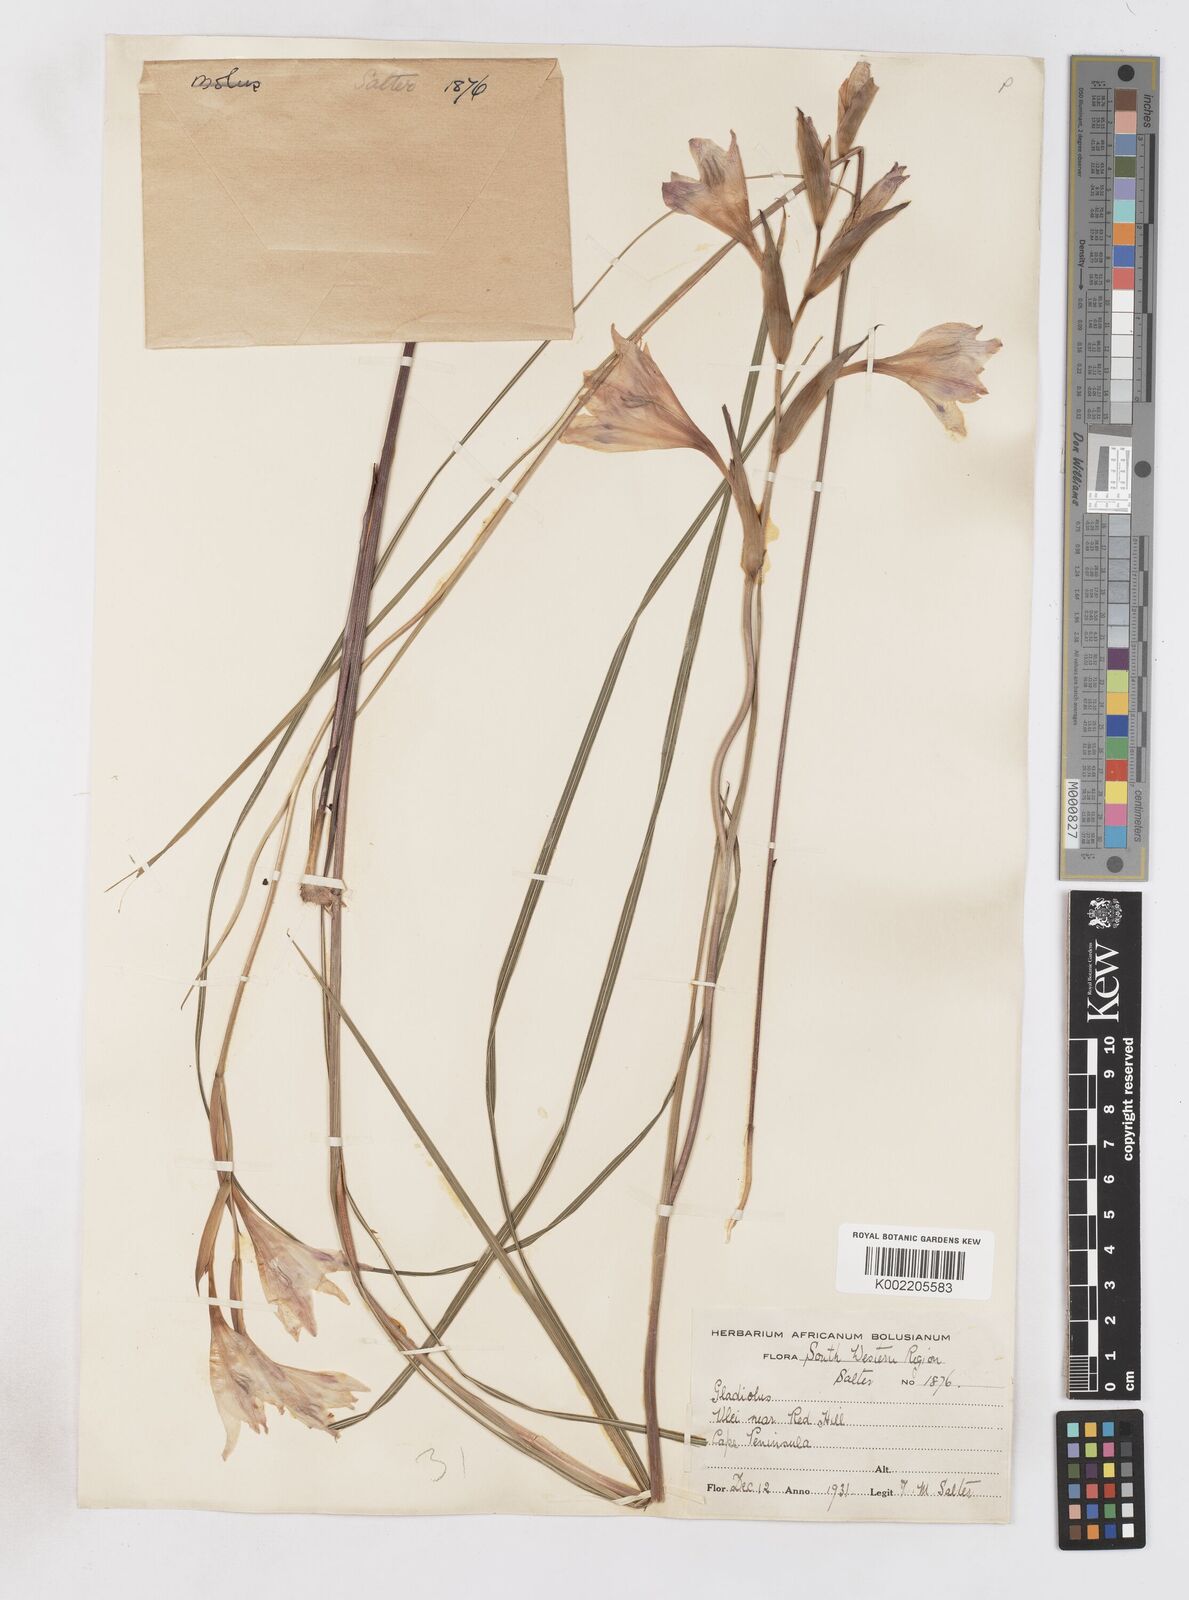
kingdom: Plantae
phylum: Tracheophyta
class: Liliopsida
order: Asparagales
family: Iridaceae
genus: Gladiolus
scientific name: Gladiolus carneus
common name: Painted-lady
